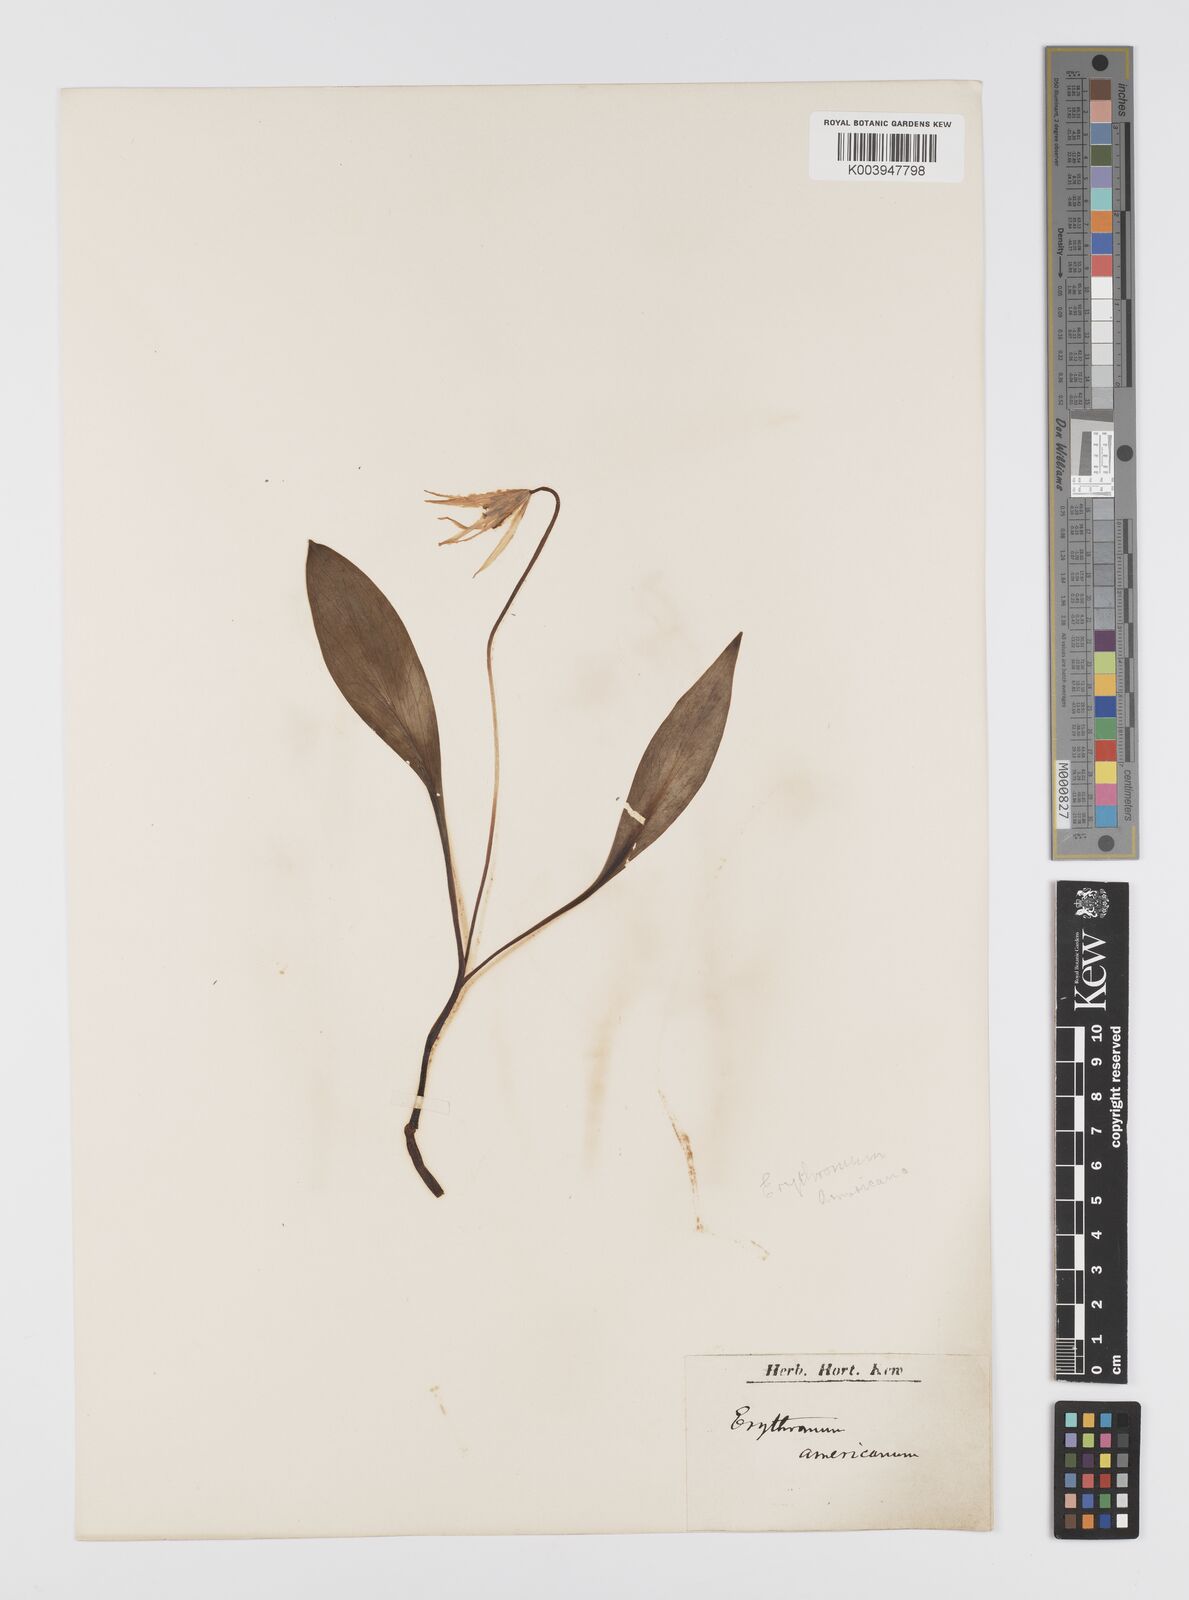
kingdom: Plantae
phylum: Tracheophyta
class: Liliopsida
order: Liliales
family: Liliaceae
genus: Erythronium
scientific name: Erythronium americanum
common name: Yellow adder's-tongue
